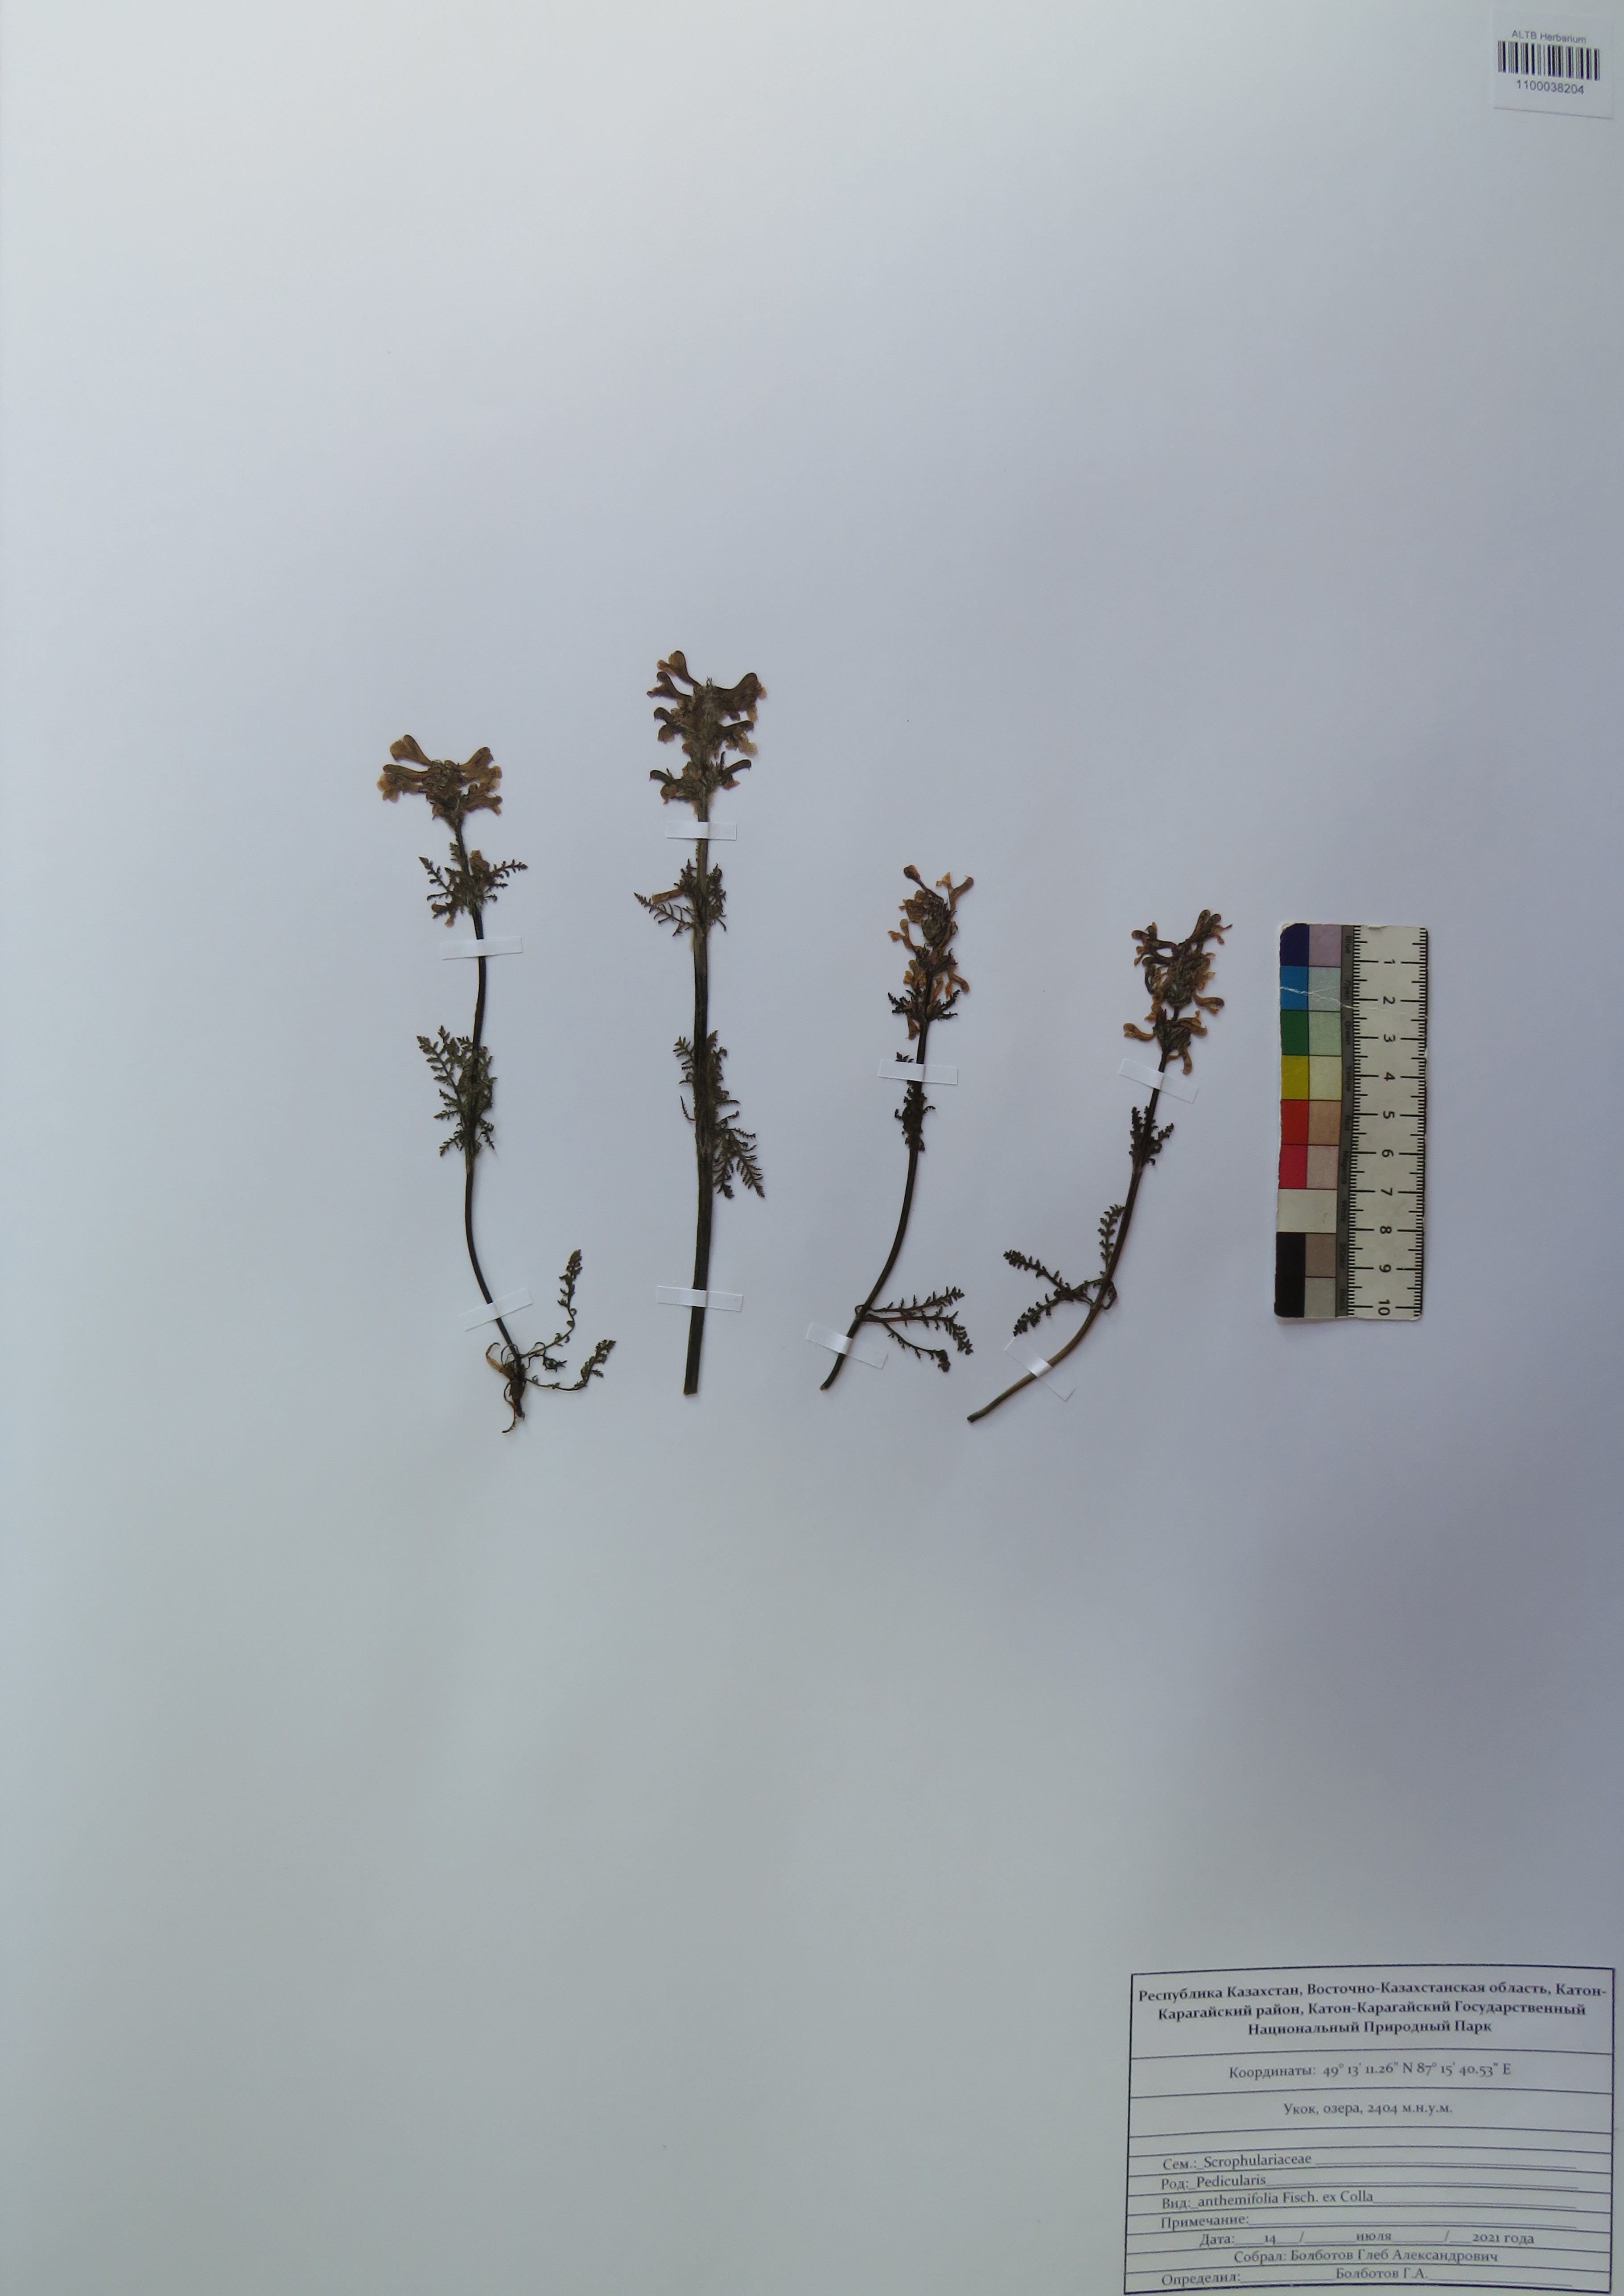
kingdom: Plantae
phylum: Tracheophyta
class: Magnoliopsida
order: Lamiales
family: Orobanchaceae
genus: Pedicularis
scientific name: Pedicularis anthemifolia
